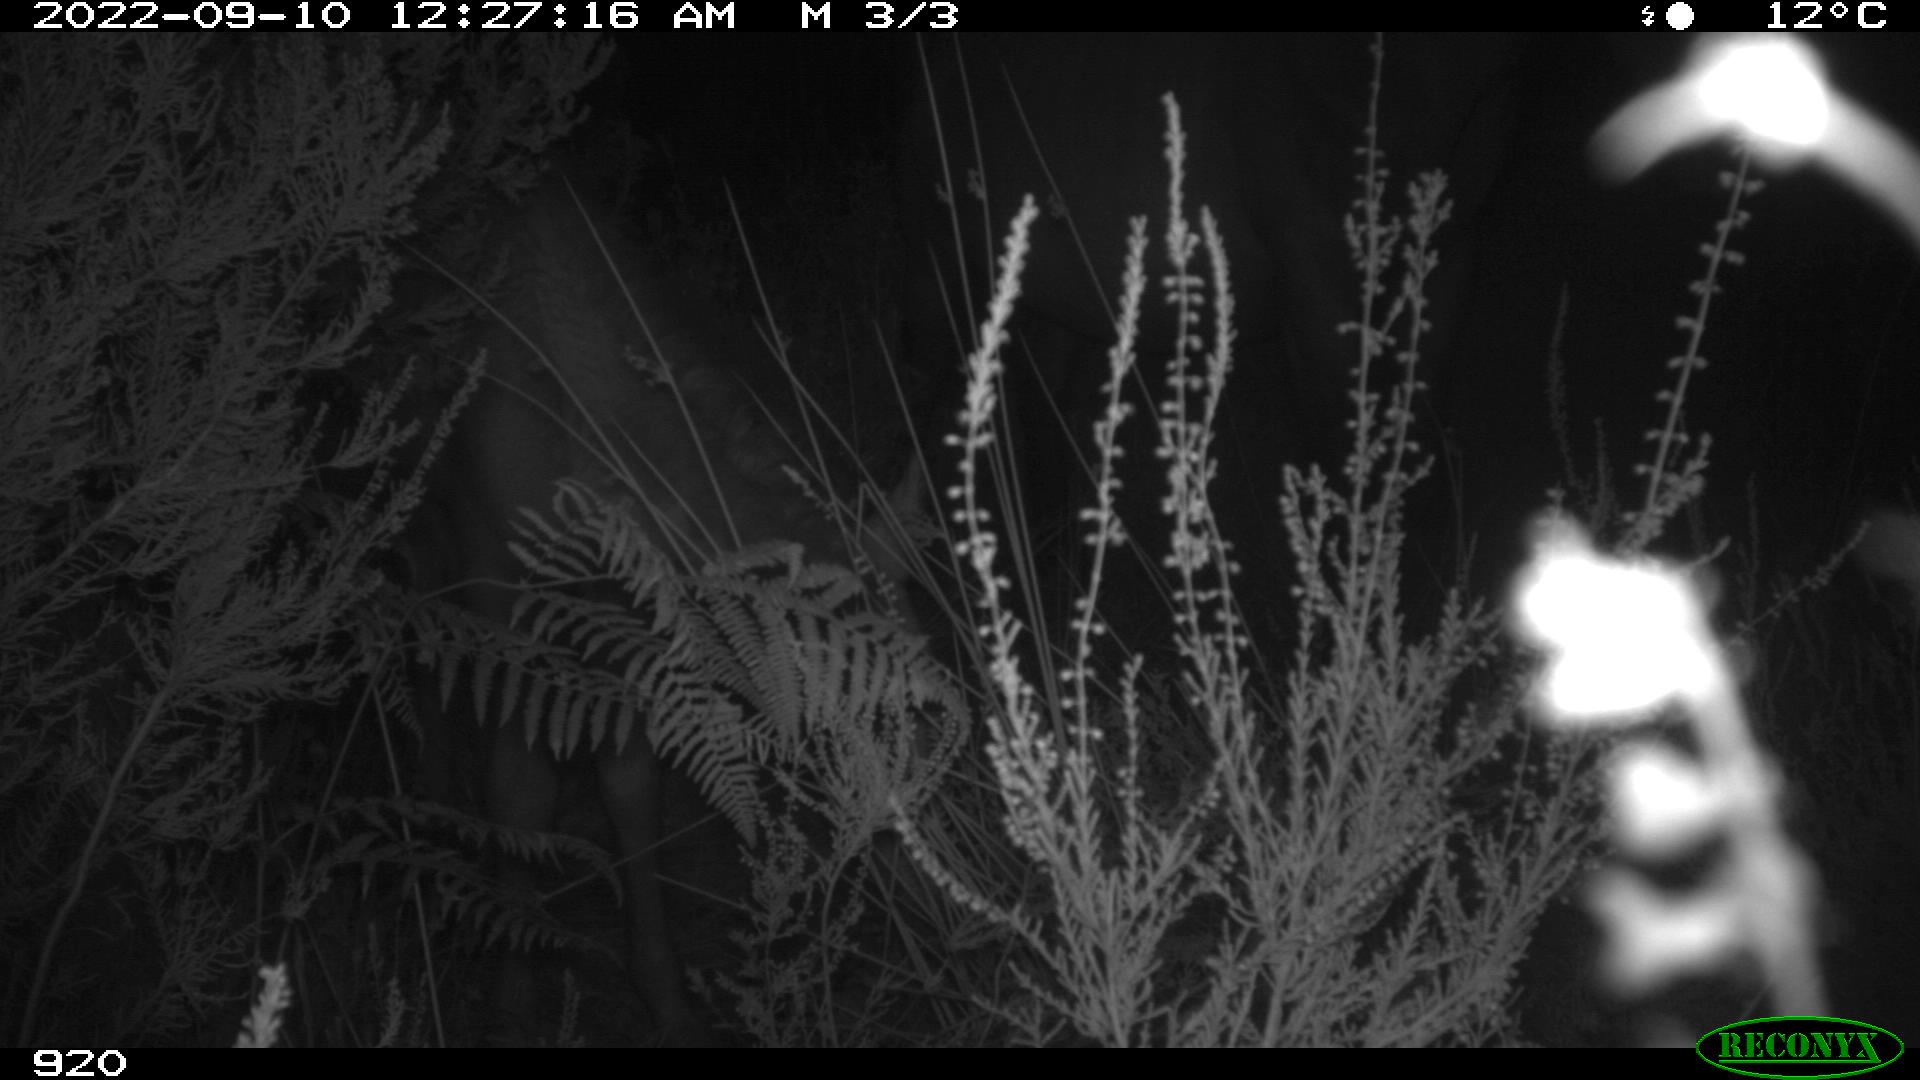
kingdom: Animalia
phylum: Chordata
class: Mammalia
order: Perissodactyla
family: Equidae
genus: Equus
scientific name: Equus caballus
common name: Horse
